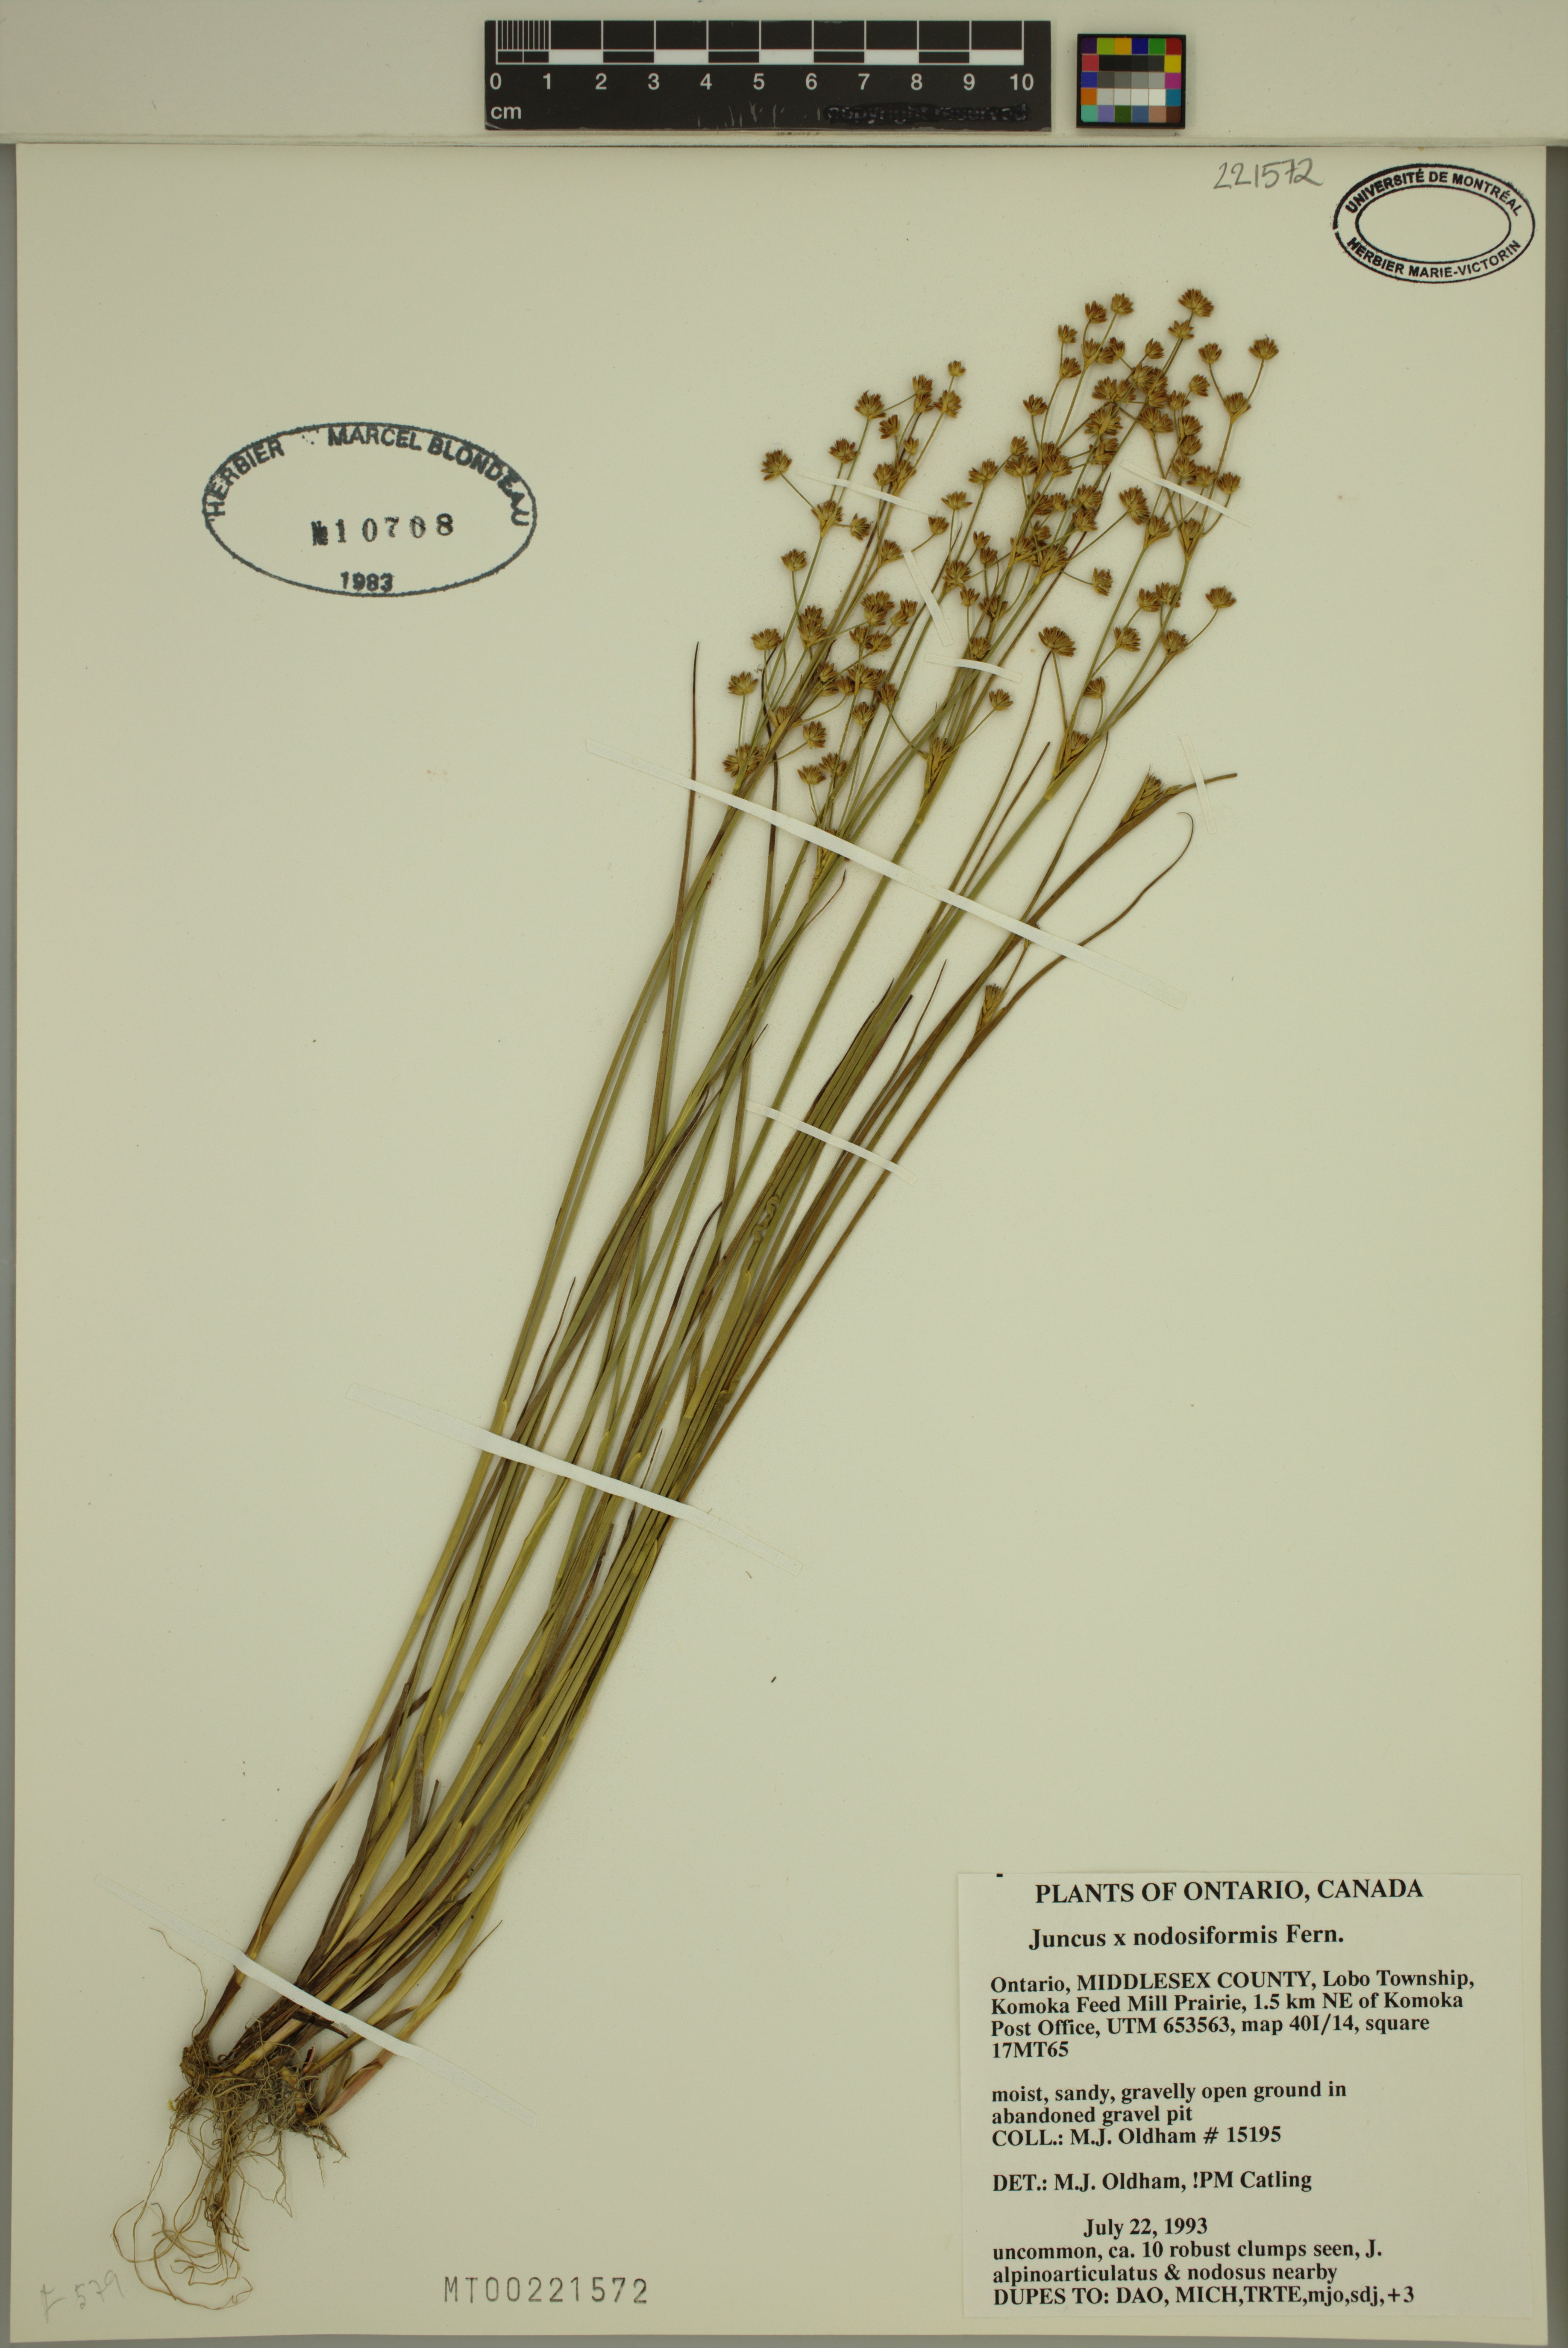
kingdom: Plantae
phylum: Tracheophyta
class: Liliopsida
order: Poales
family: Juncaceae
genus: Juncus
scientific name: Juncus nodosiformis
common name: Hybrid rush
